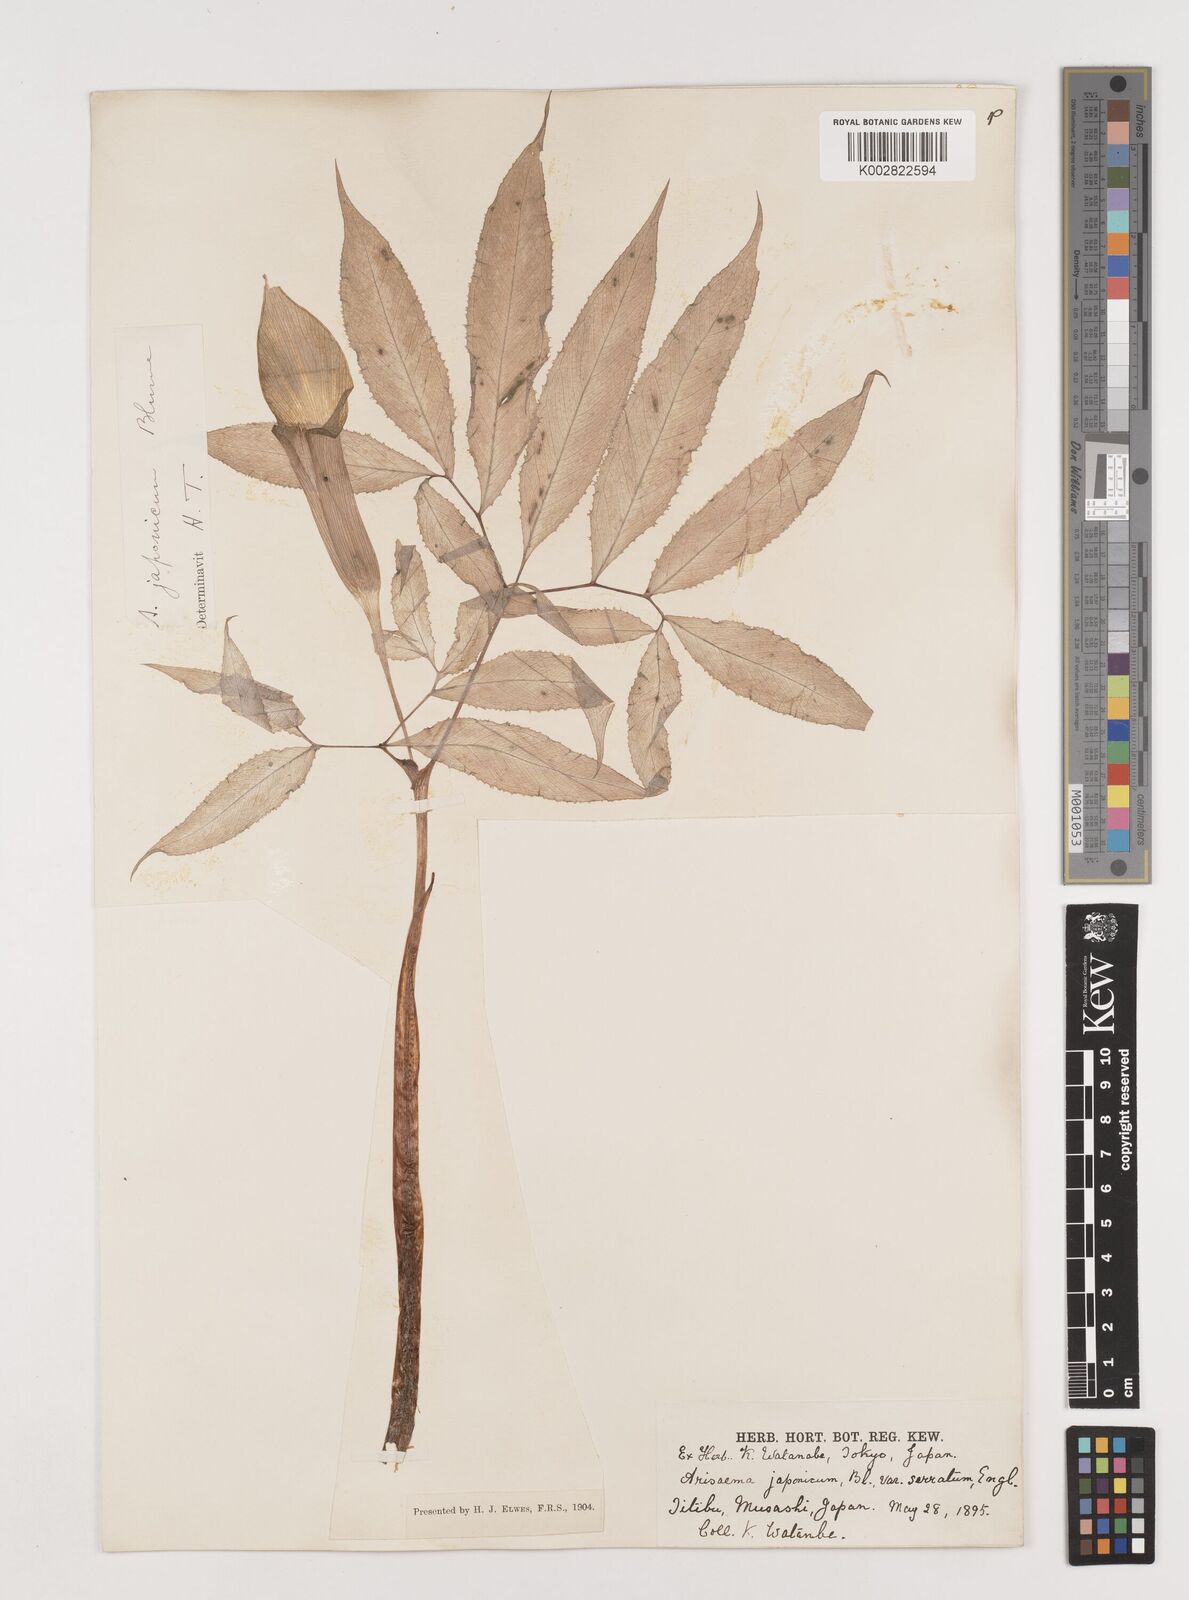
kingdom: Plantae
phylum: Tracheophyta
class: Liliopsida
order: Alismatales
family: Araceae
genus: Arisaema
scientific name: Arisaema serratum
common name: Japanese arisaema
